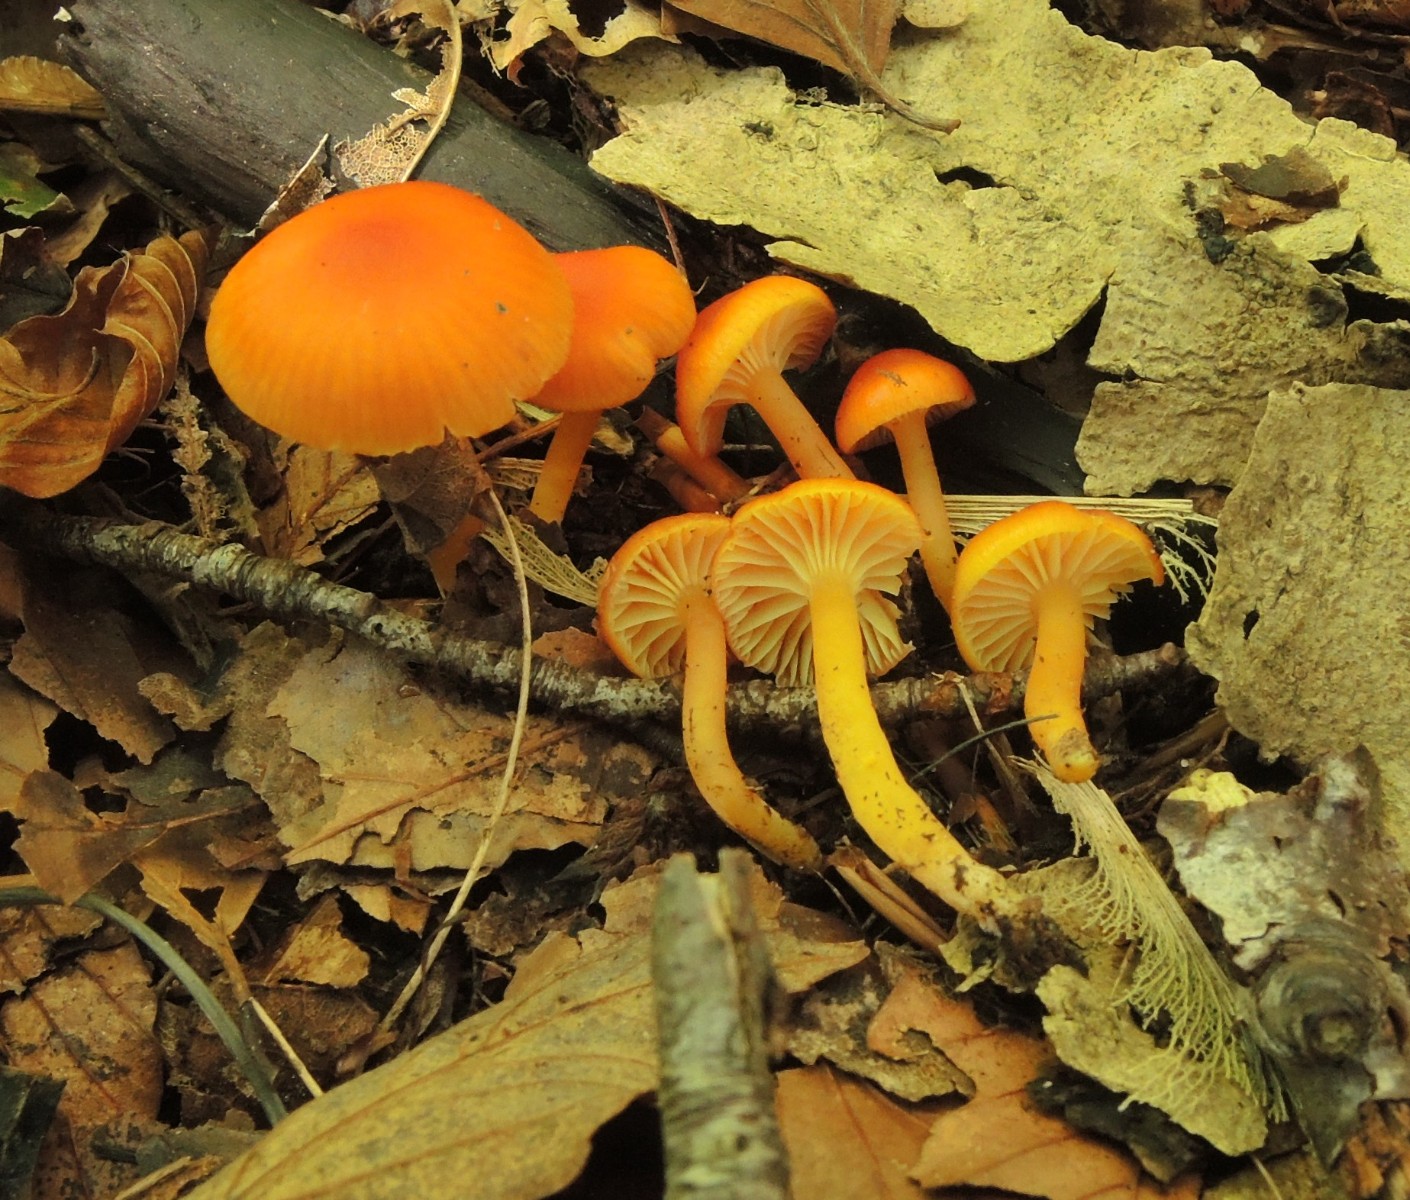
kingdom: Fungi
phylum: Basidiomycota
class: Agaricomycetes
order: Agaricales
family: Hygrophoraceae
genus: Hygrocybe
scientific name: Hygrocybe ceracea
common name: voksgul vokshat
